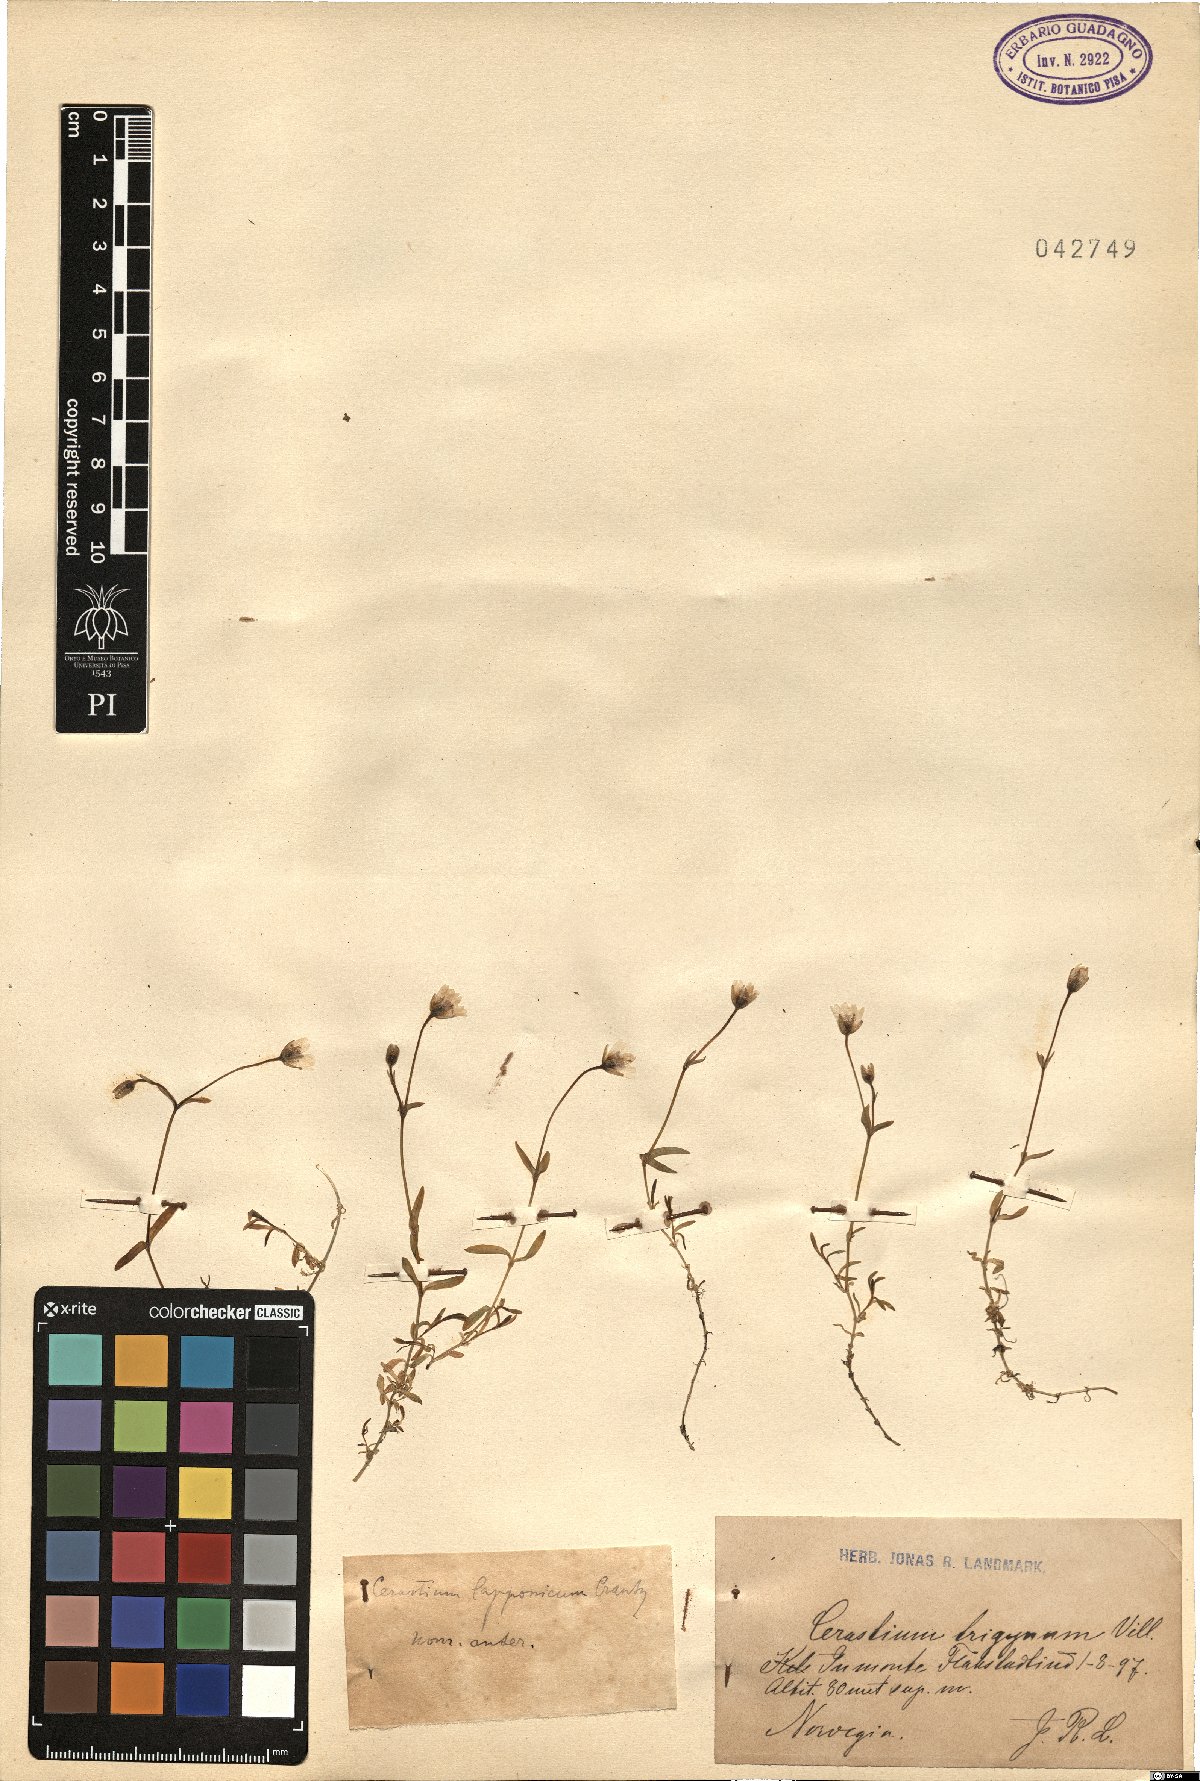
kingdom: Plantae
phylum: Tracheophyta
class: Magnoliopsida
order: Caryophyllales
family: Caryophyllaceae
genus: Dichodon
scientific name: Dichodon cerastoides
